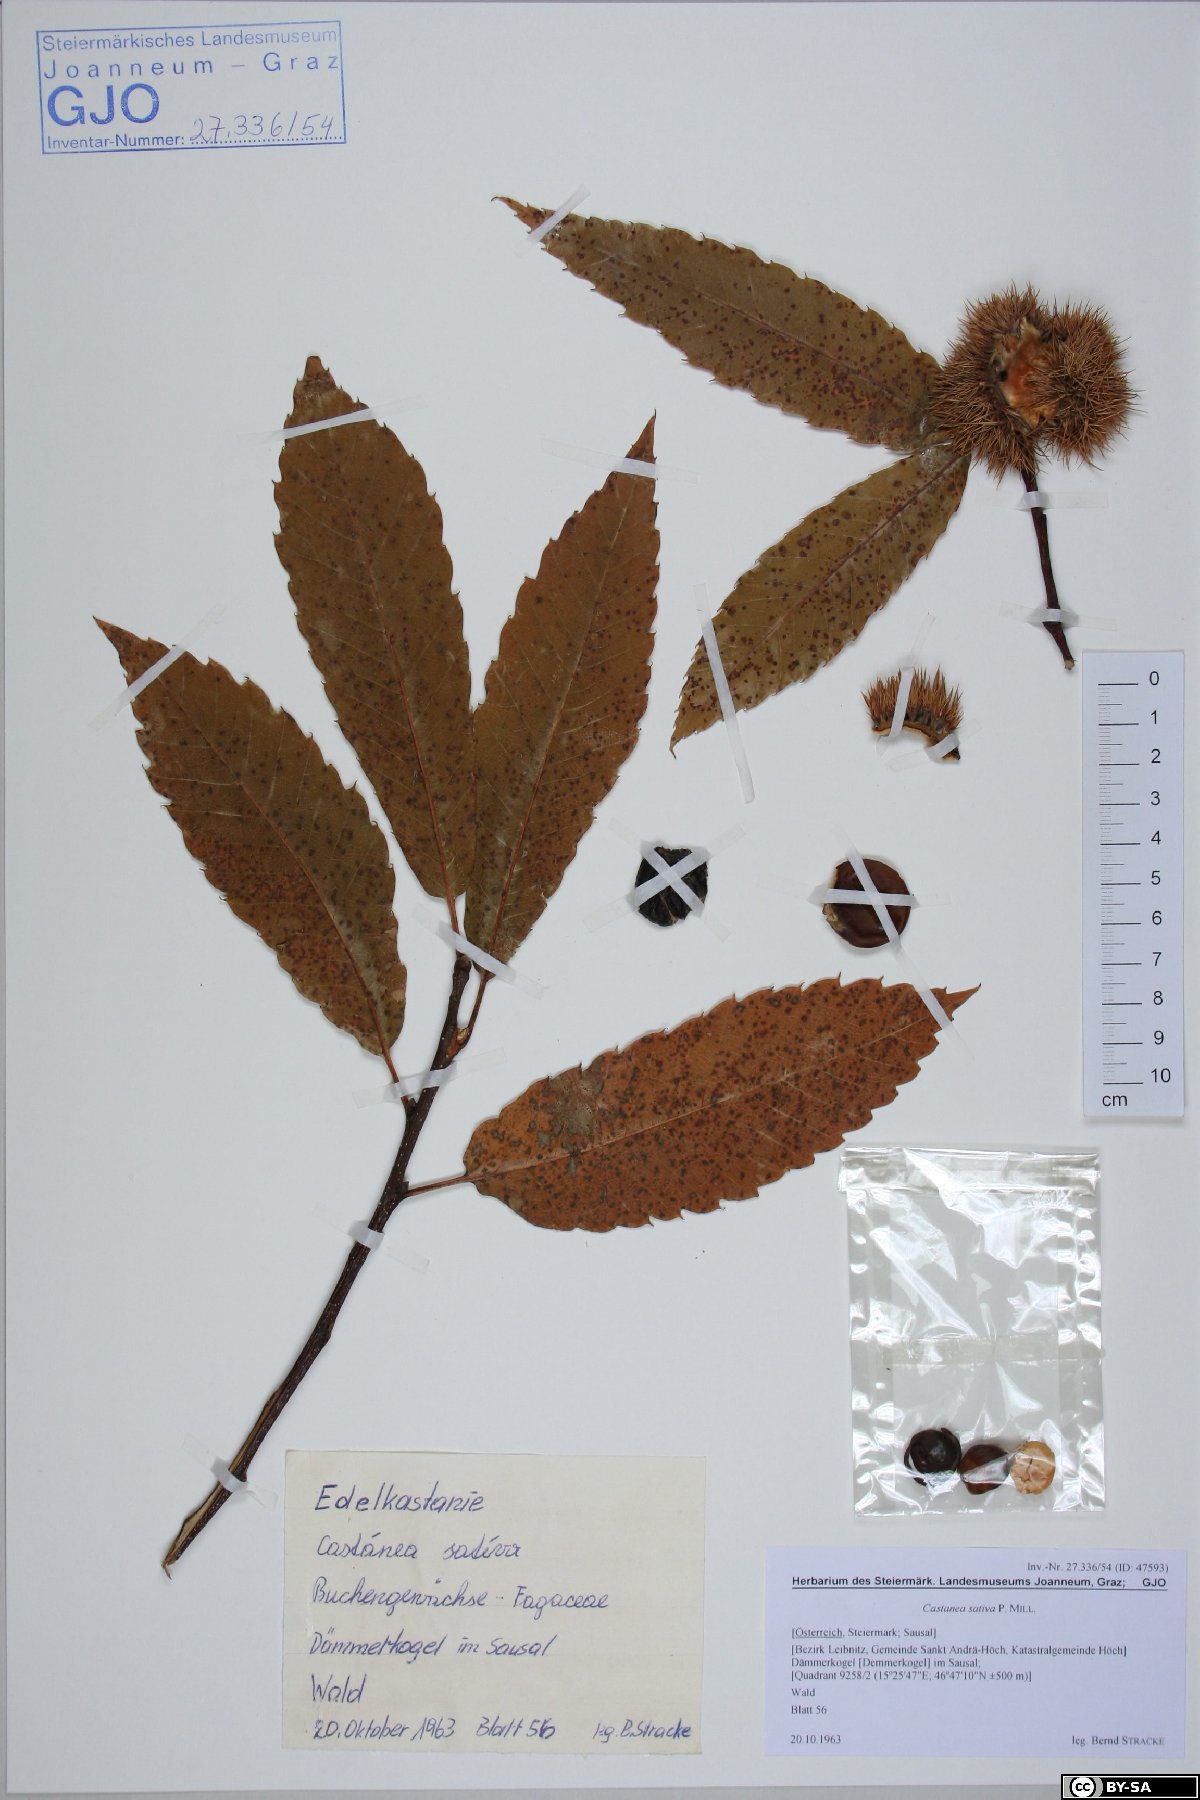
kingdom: Plantae
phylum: Tracheophyta
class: Magnoliopsida
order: Fagales
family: Fagaceae
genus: Castanea
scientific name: Castanea sativa
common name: Sweet chestnut
